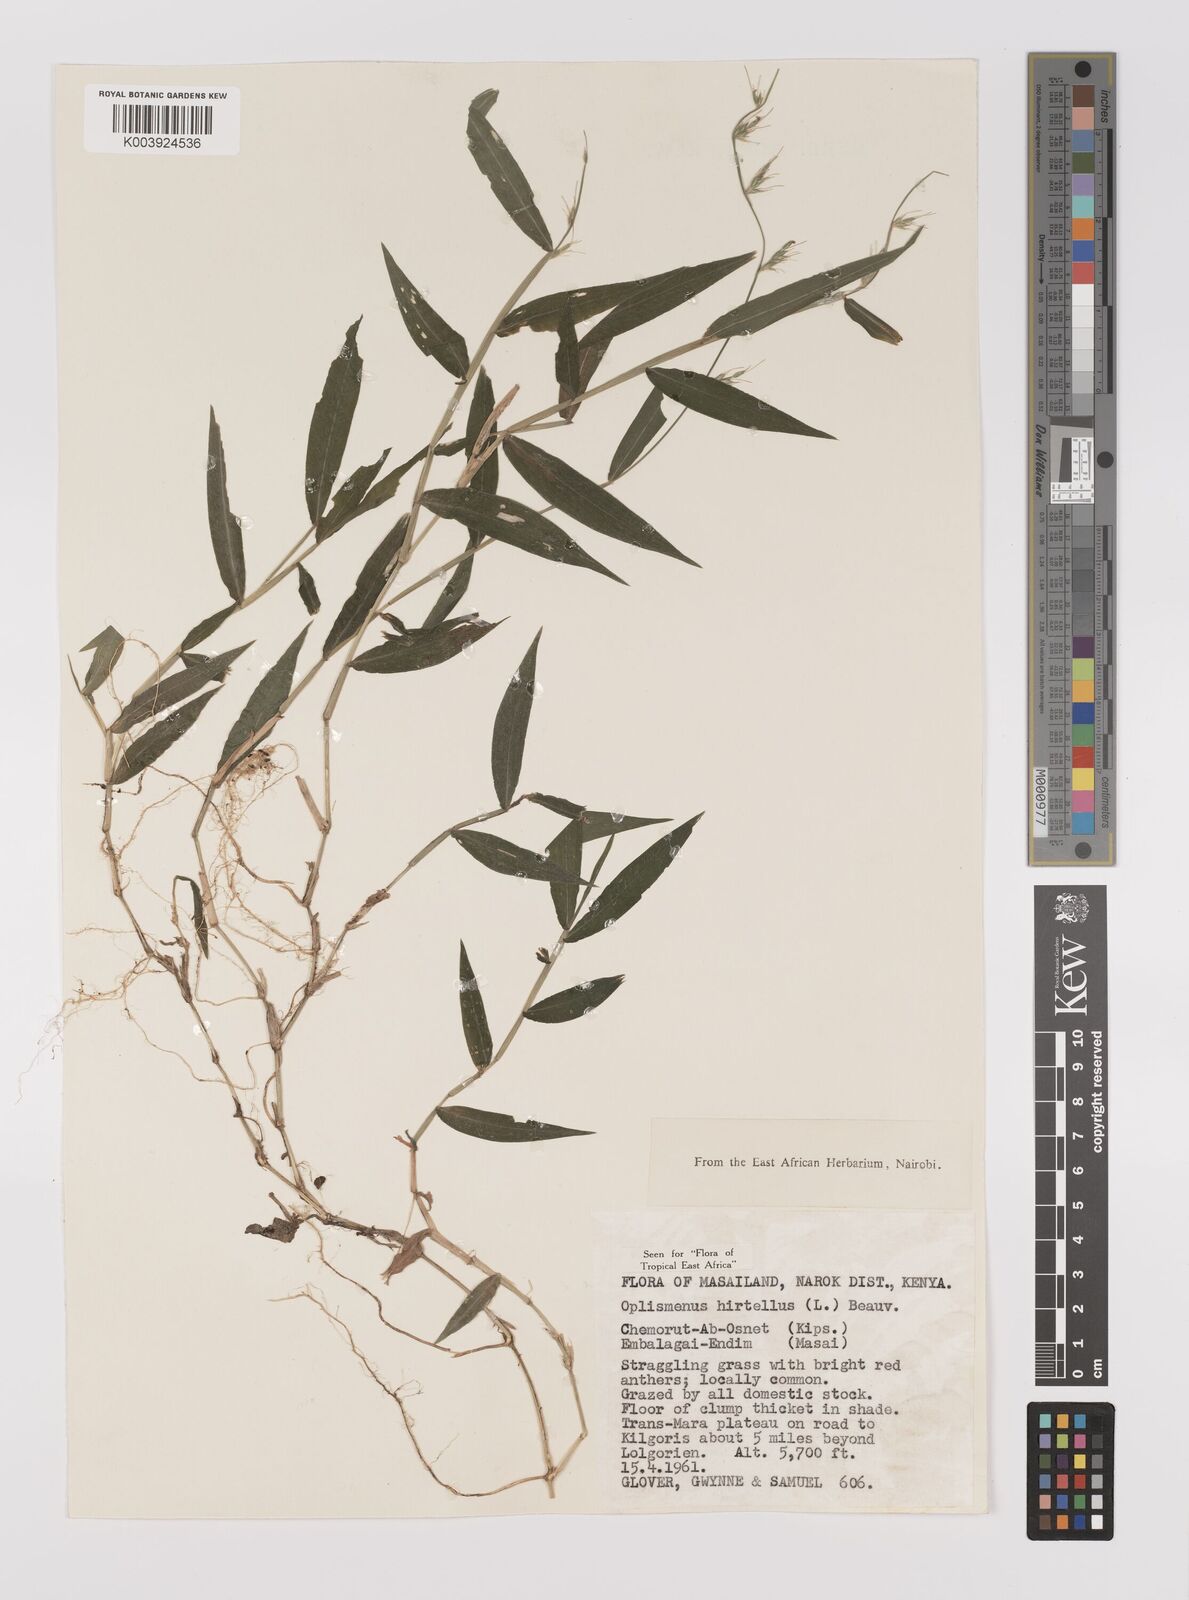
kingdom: Plantae
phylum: Tracheophyta
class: Liliopsida
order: Poales
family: Poaceae
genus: Oplismenus
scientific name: Oplismenus hirtellus
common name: Basketgrass
